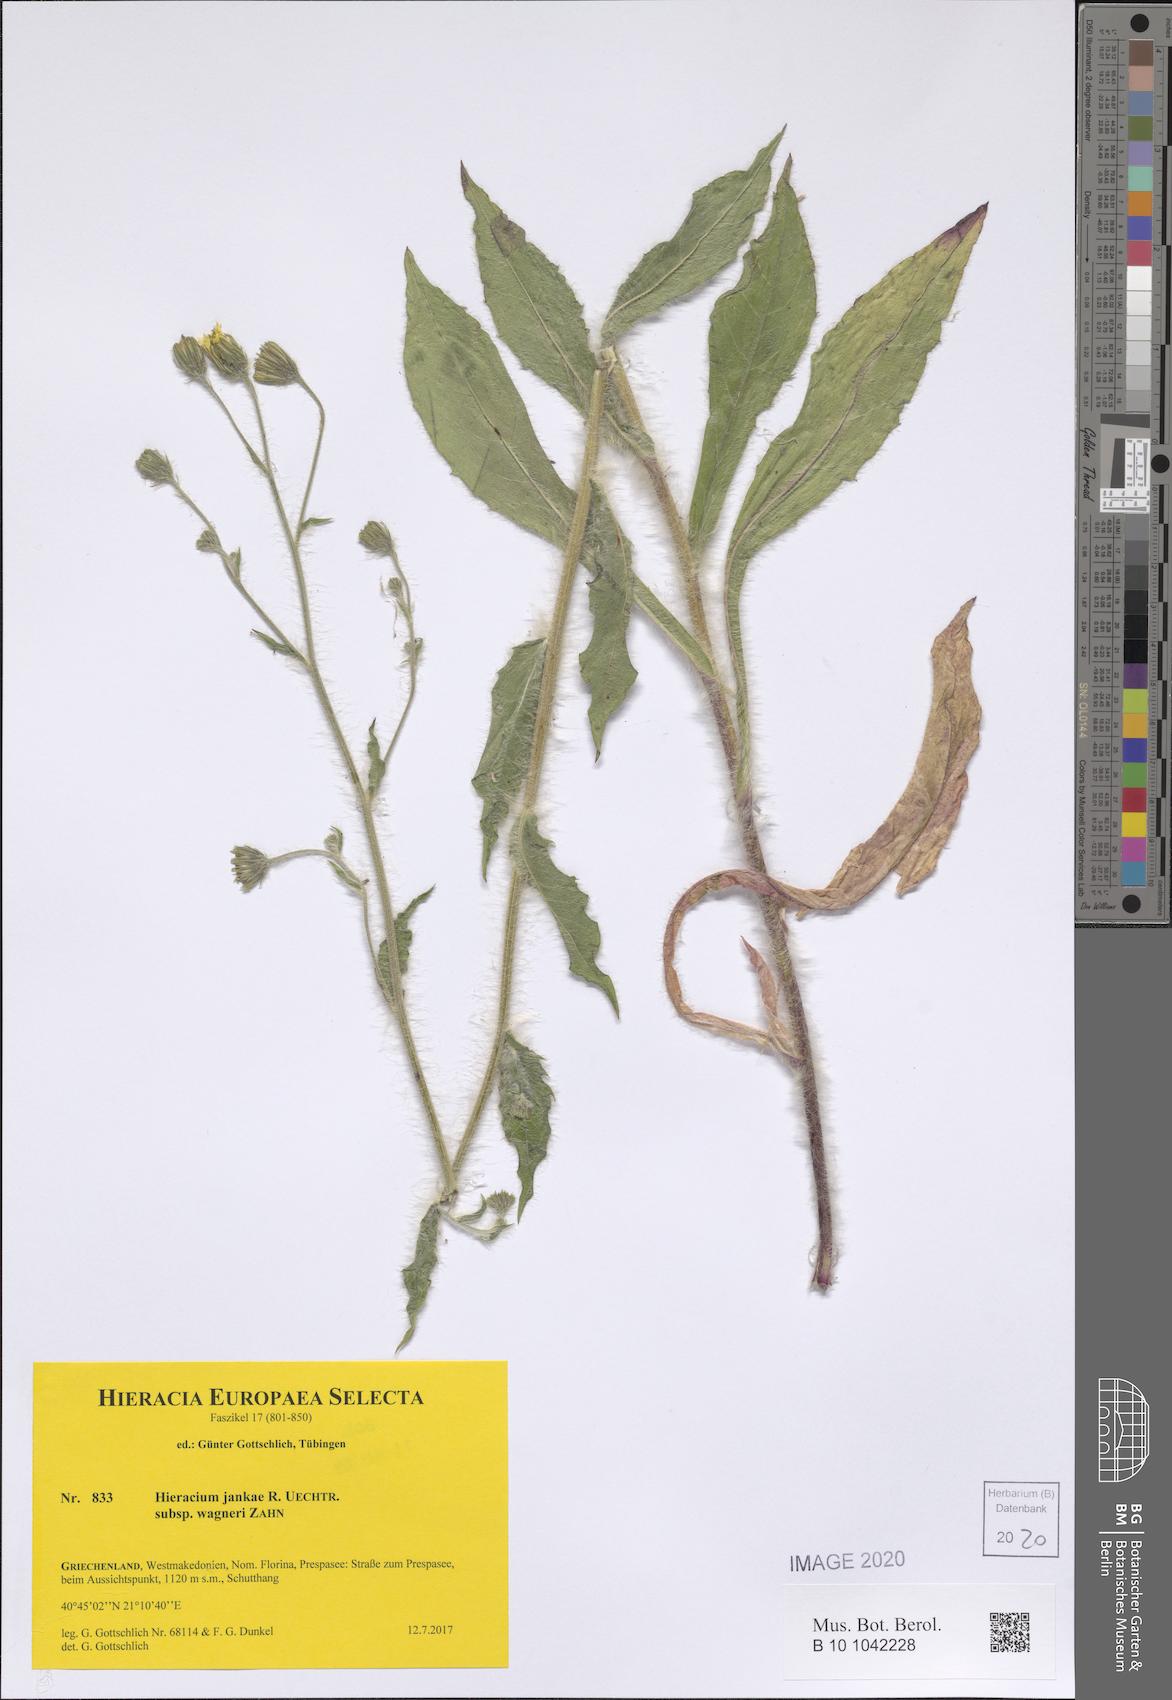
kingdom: Plantae
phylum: Tracheophyta
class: Magnoliopsida
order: Asterales
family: Asteraceae
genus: Hieracium
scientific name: Hieracium jankae
